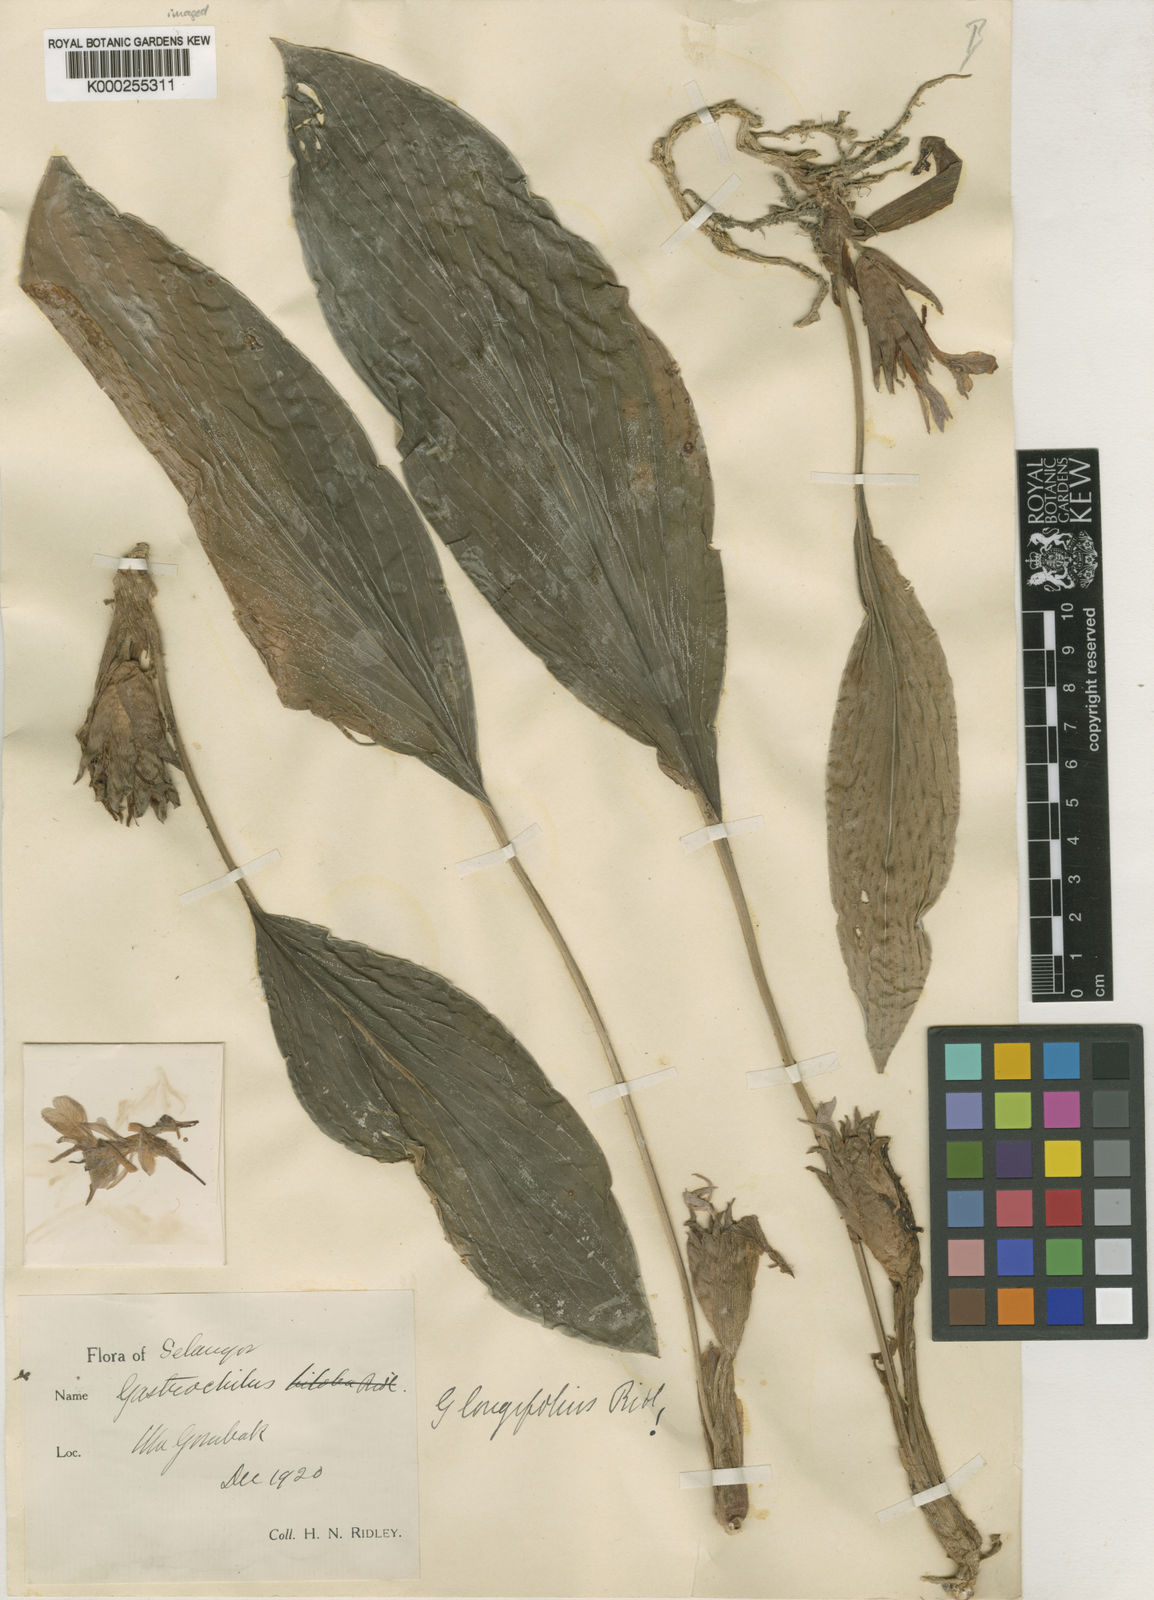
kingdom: Plantae
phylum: Tracheophyta
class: Liliopsida
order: Zingiberales
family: Zingiberaceae
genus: Scaphochlamys
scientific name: Scaphochlamys biloba
